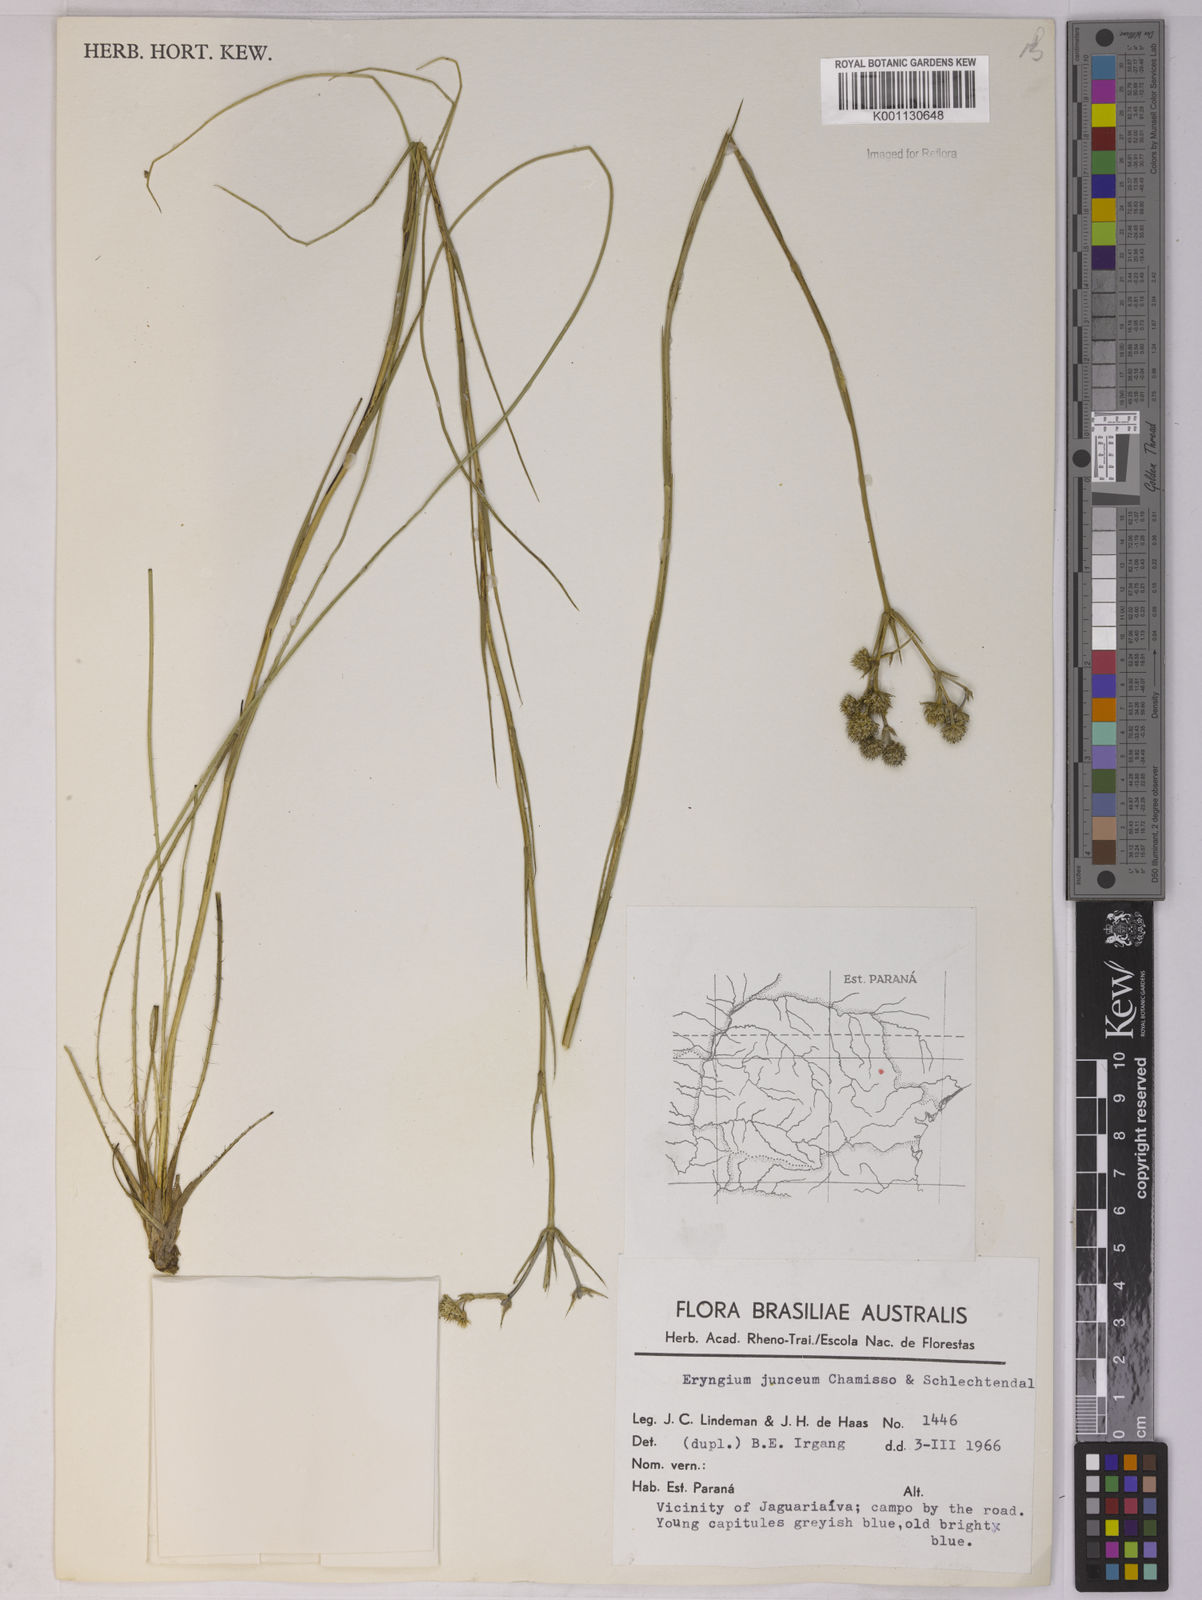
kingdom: Plantae
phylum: Tracheophyta
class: Magnoliopsida
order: Apiales
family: Apiaceae
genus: Eryngium
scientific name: Eryngium junceum
